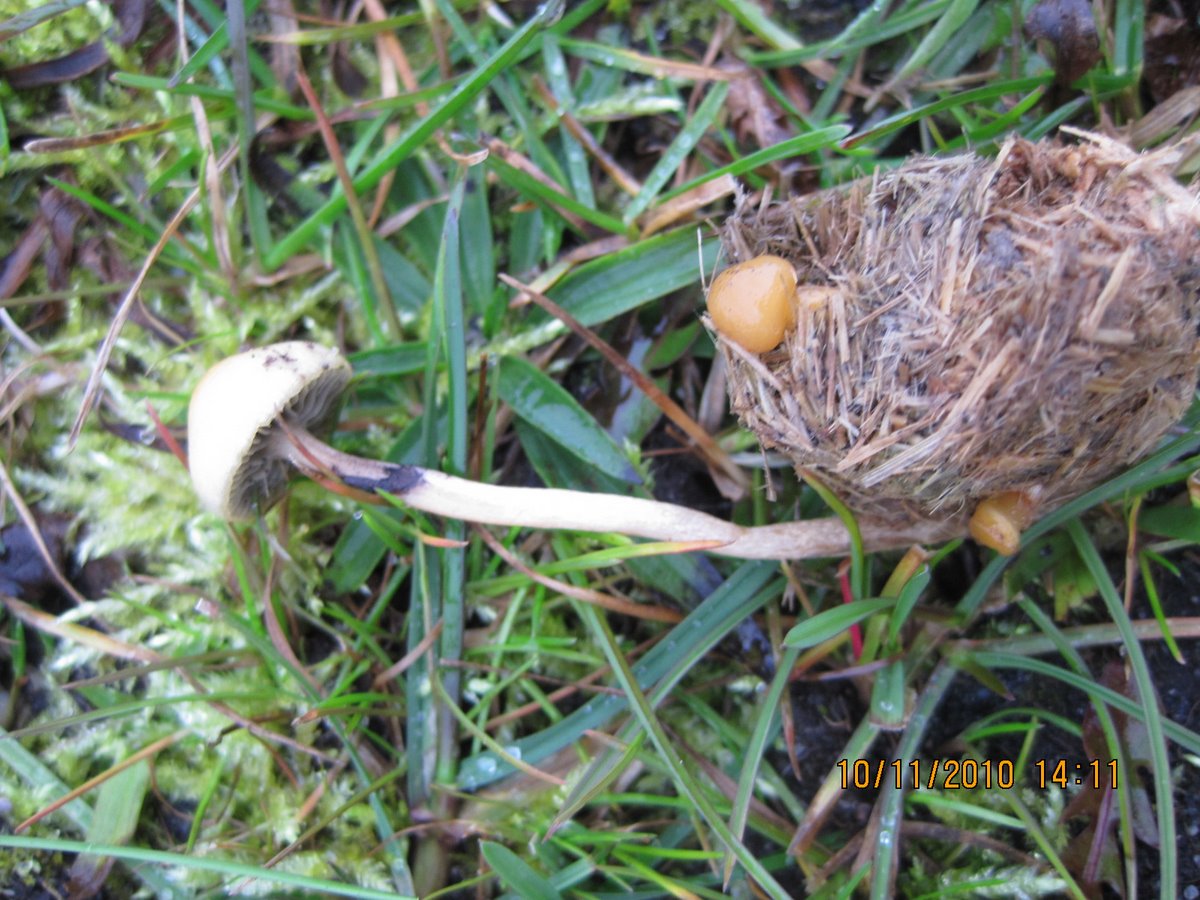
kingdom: Fungi
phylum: Basidiomycota
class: Agaricomycetes
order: Agaricales
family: Strophariaceae
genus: Protostropharia
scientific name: Protostropharia semiglobata
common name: halvkugleformet bredblad
